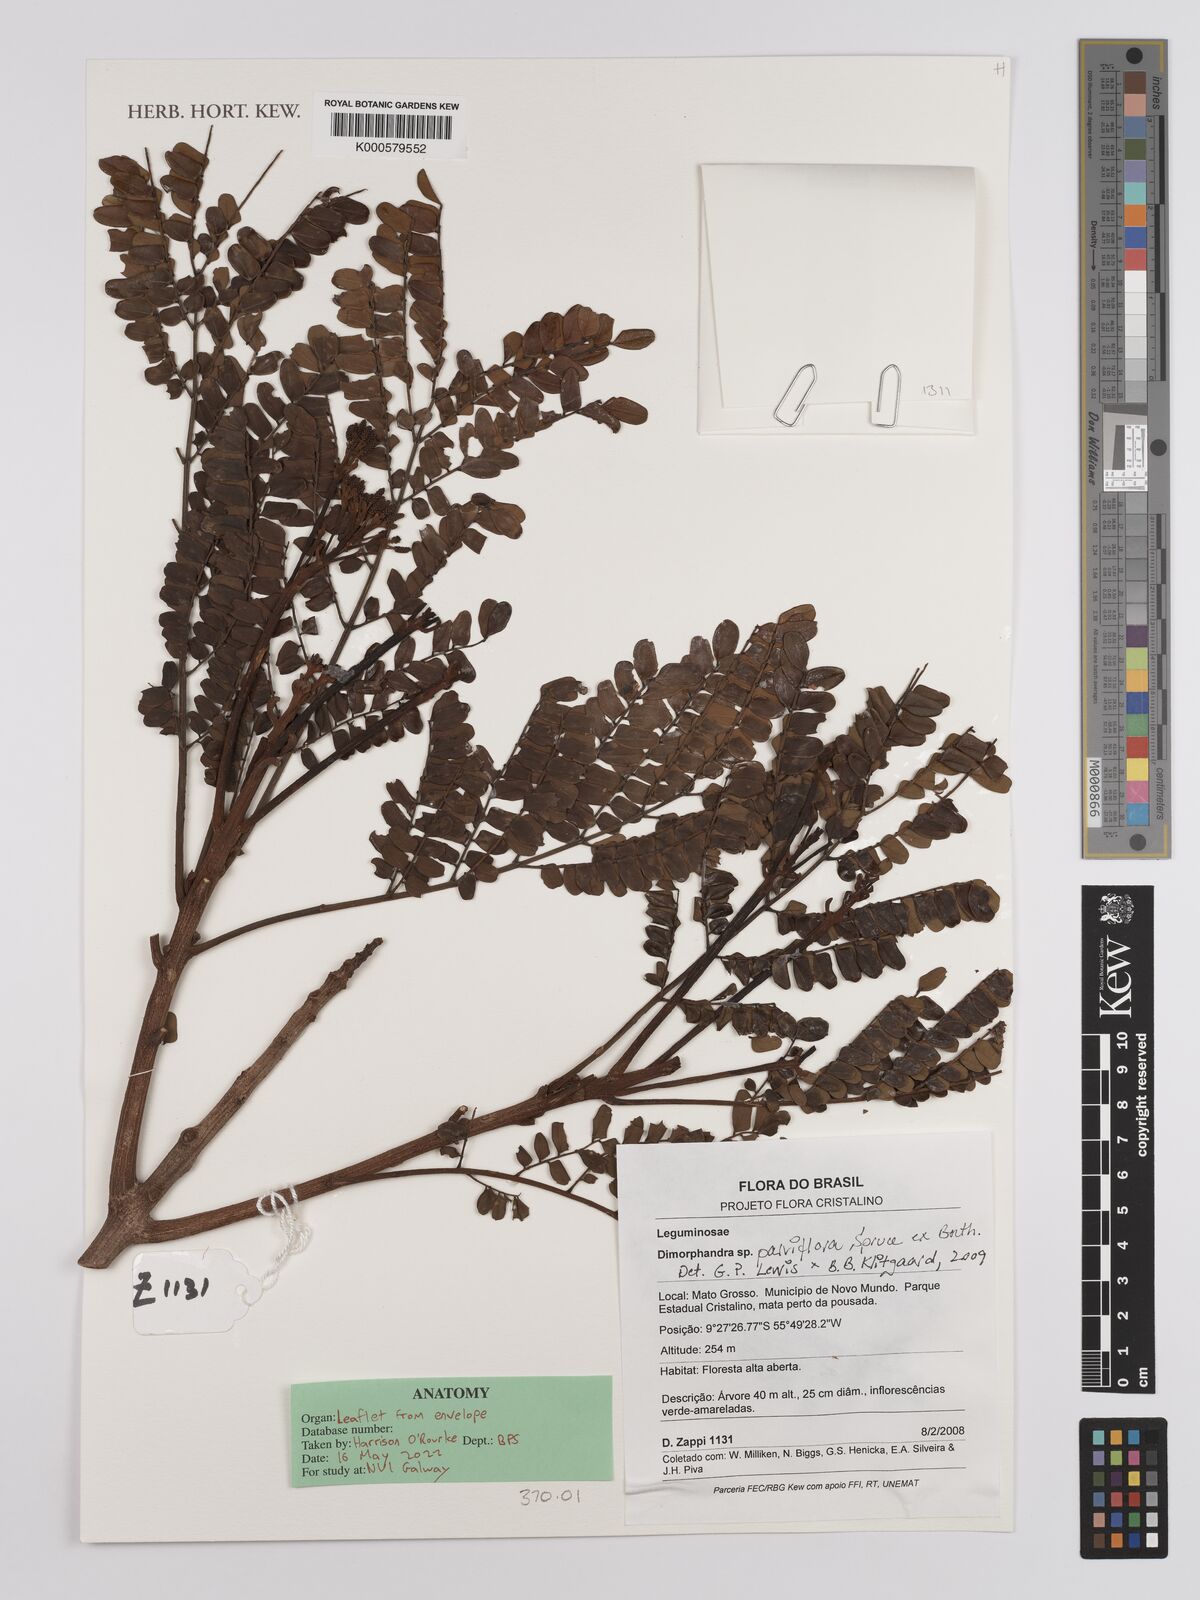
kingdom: Plantae
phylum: Tracheophyta
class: Magnoliopsida
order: Fabales
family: Fabaceae
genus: Dimorphandra
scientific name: Dimorphandra parviflora
